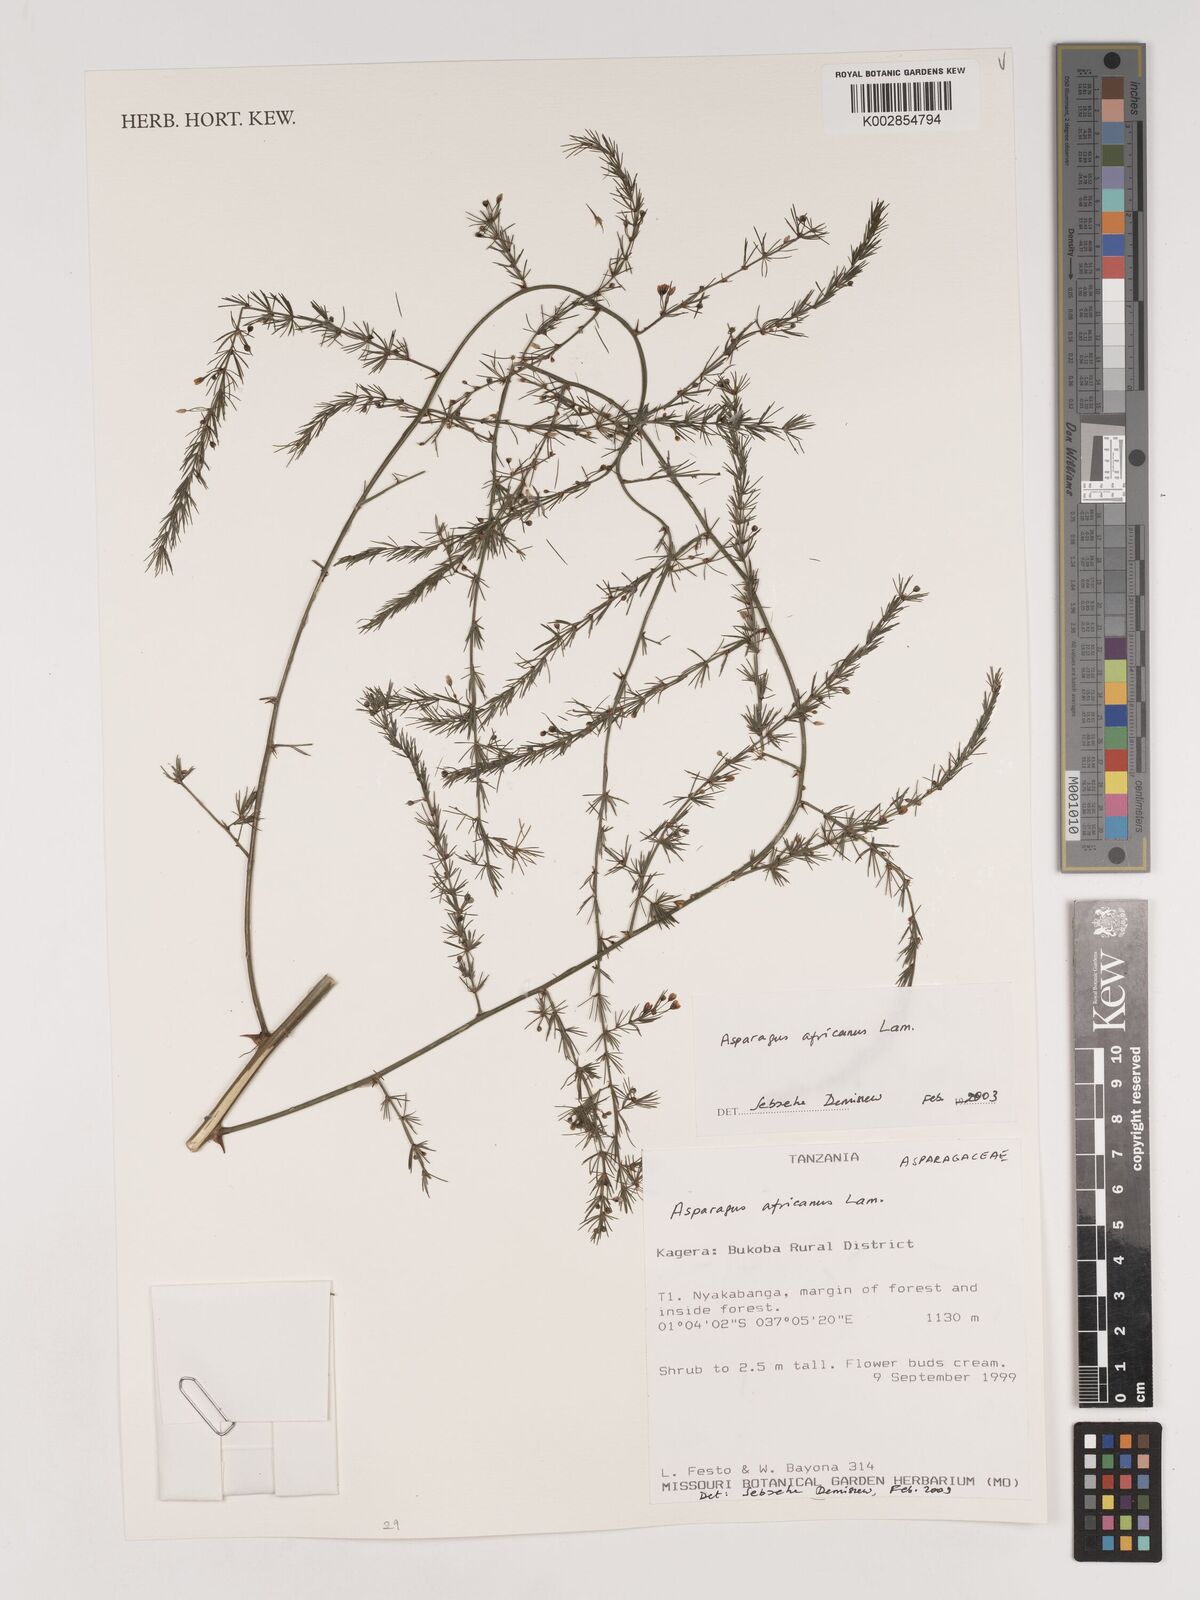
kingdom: Plantae
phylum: Tracheophyta
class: Liliopsida
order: Asparagales
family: Asparagaceae
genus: Asparagus
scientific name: Asparagus africanus
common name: Asparagus-fern
